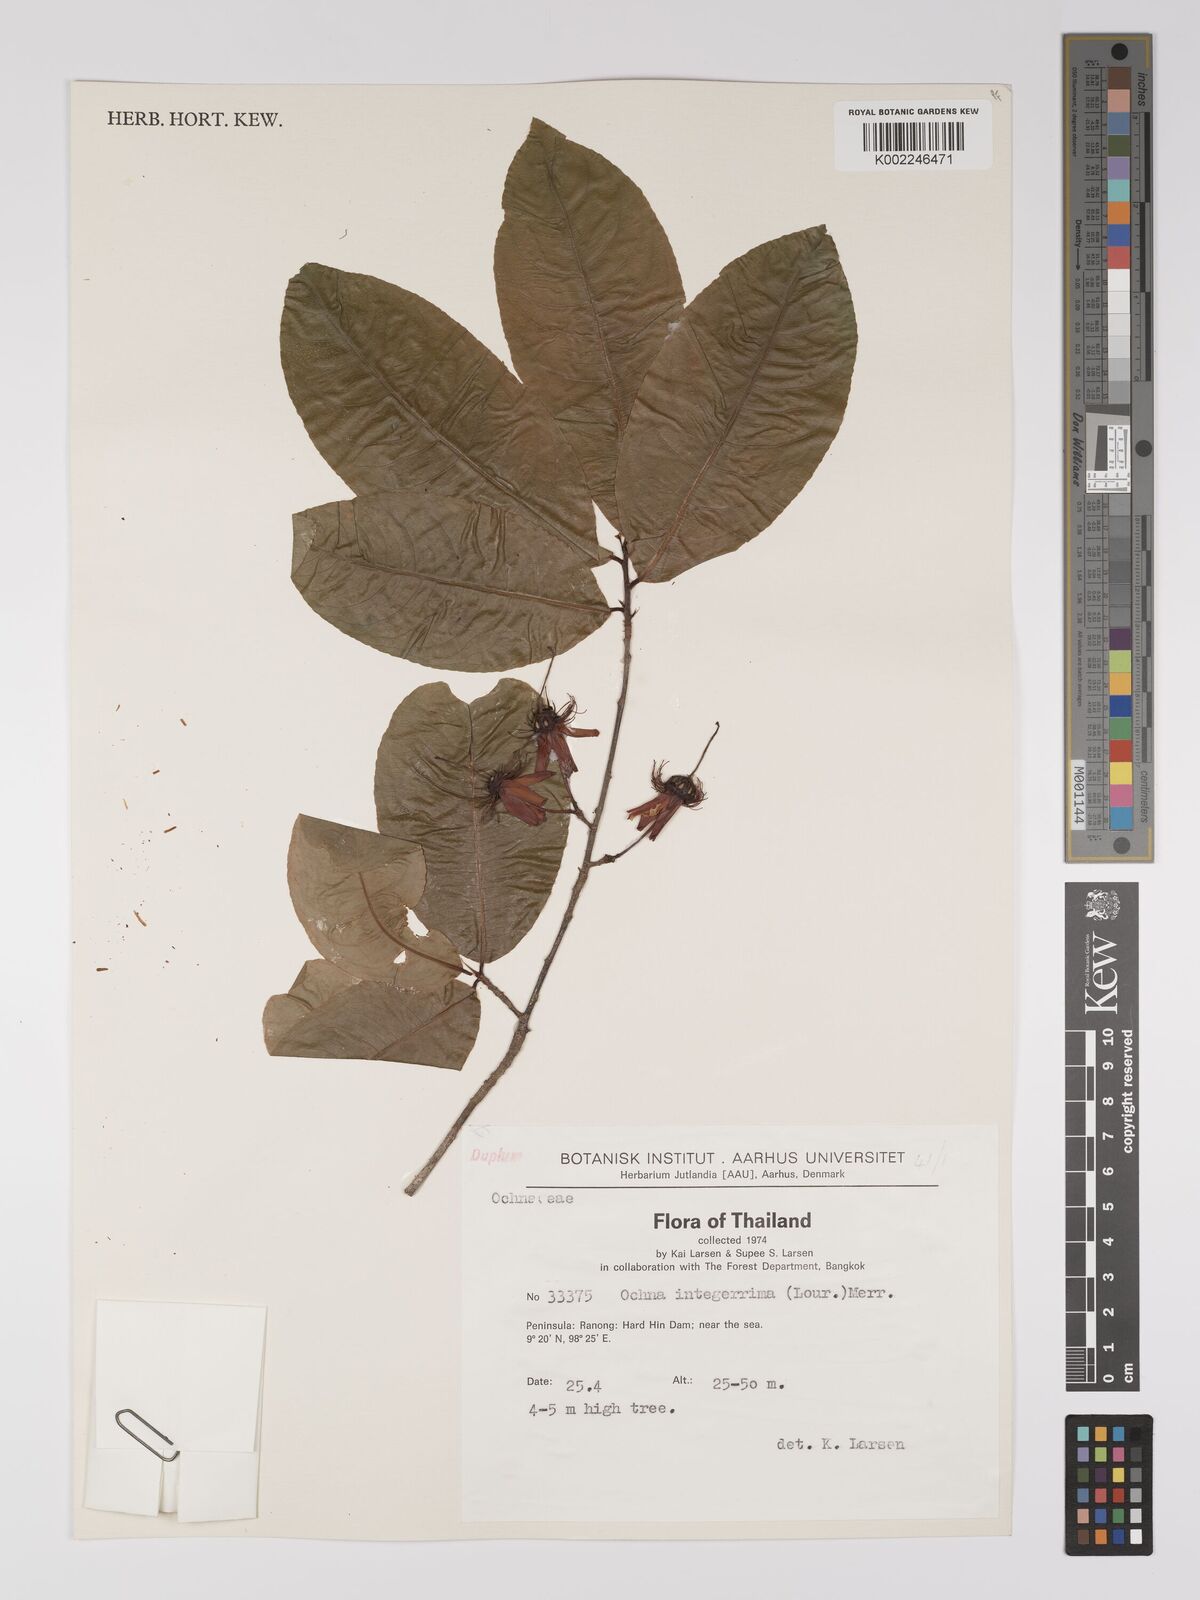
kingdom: Plantae
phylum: Tracheophyta
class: Magnoliopsida
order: Malpighiales
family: Ochnaceae
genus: Ochna
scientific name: Ochna integerrima
